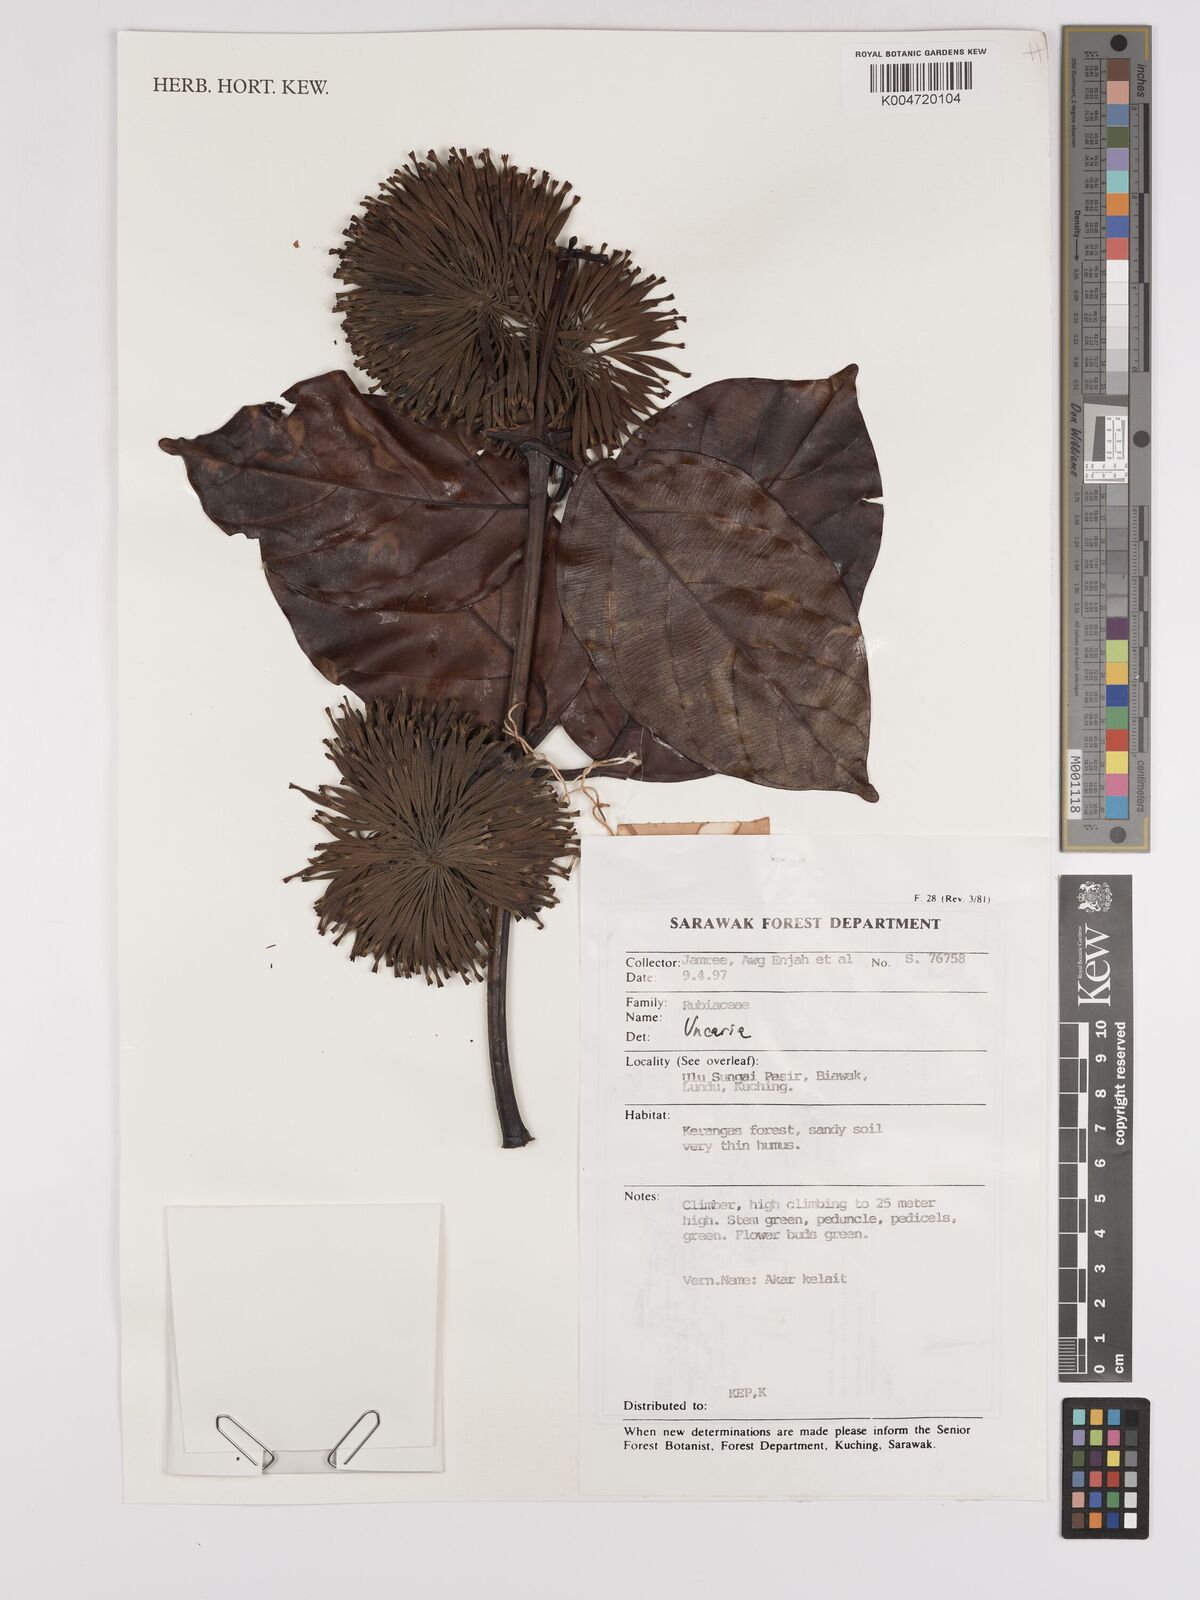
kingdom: Plantae
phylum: Tracheophyta
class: Magnoliopsida
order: Gentianales
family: Rubiaceae
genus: Uncaria
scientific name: Uncaria
